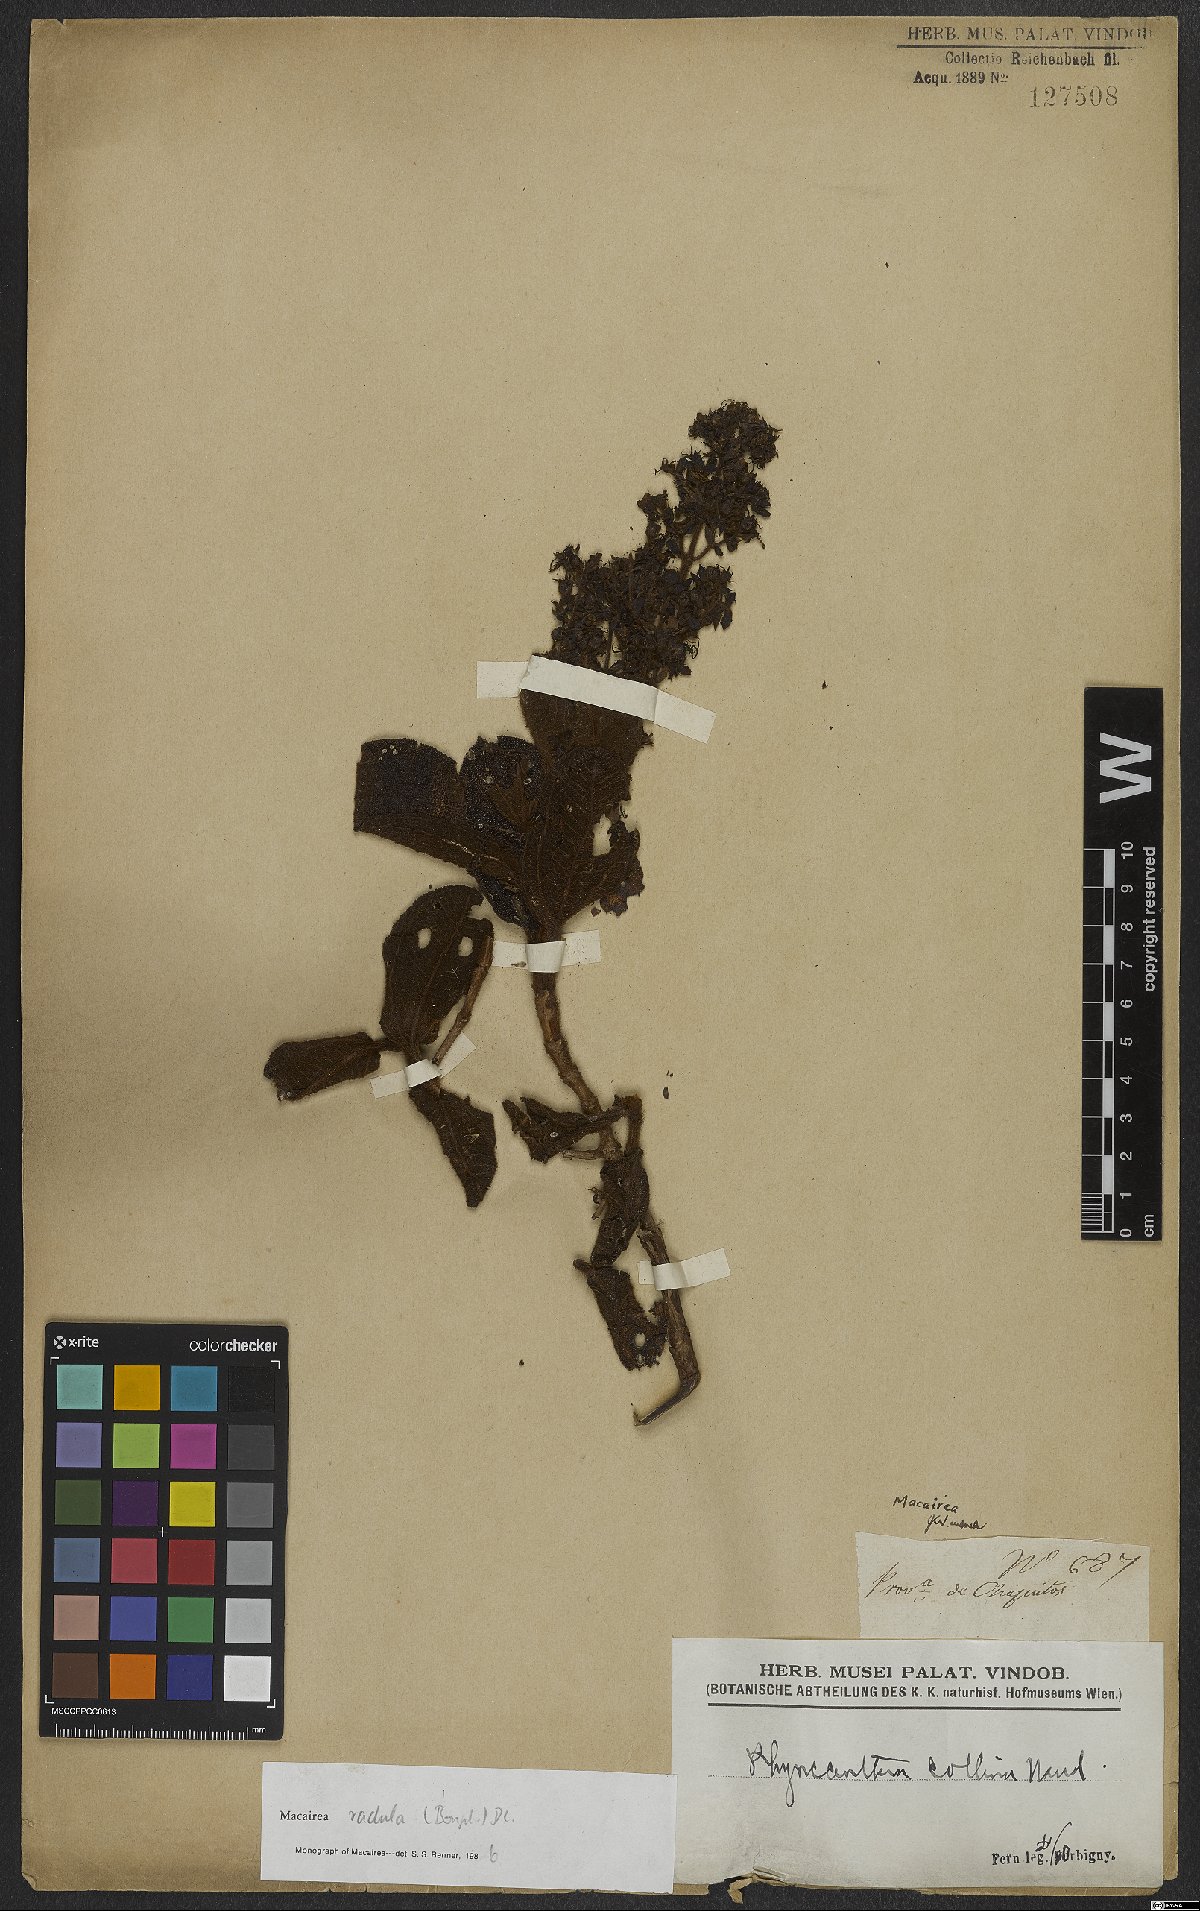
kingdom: Plantae
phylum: Tracheophyta
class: Magnoliopsida
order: Myrtales
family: Melastomataceae
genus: Macairea
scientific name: Macairea radula
